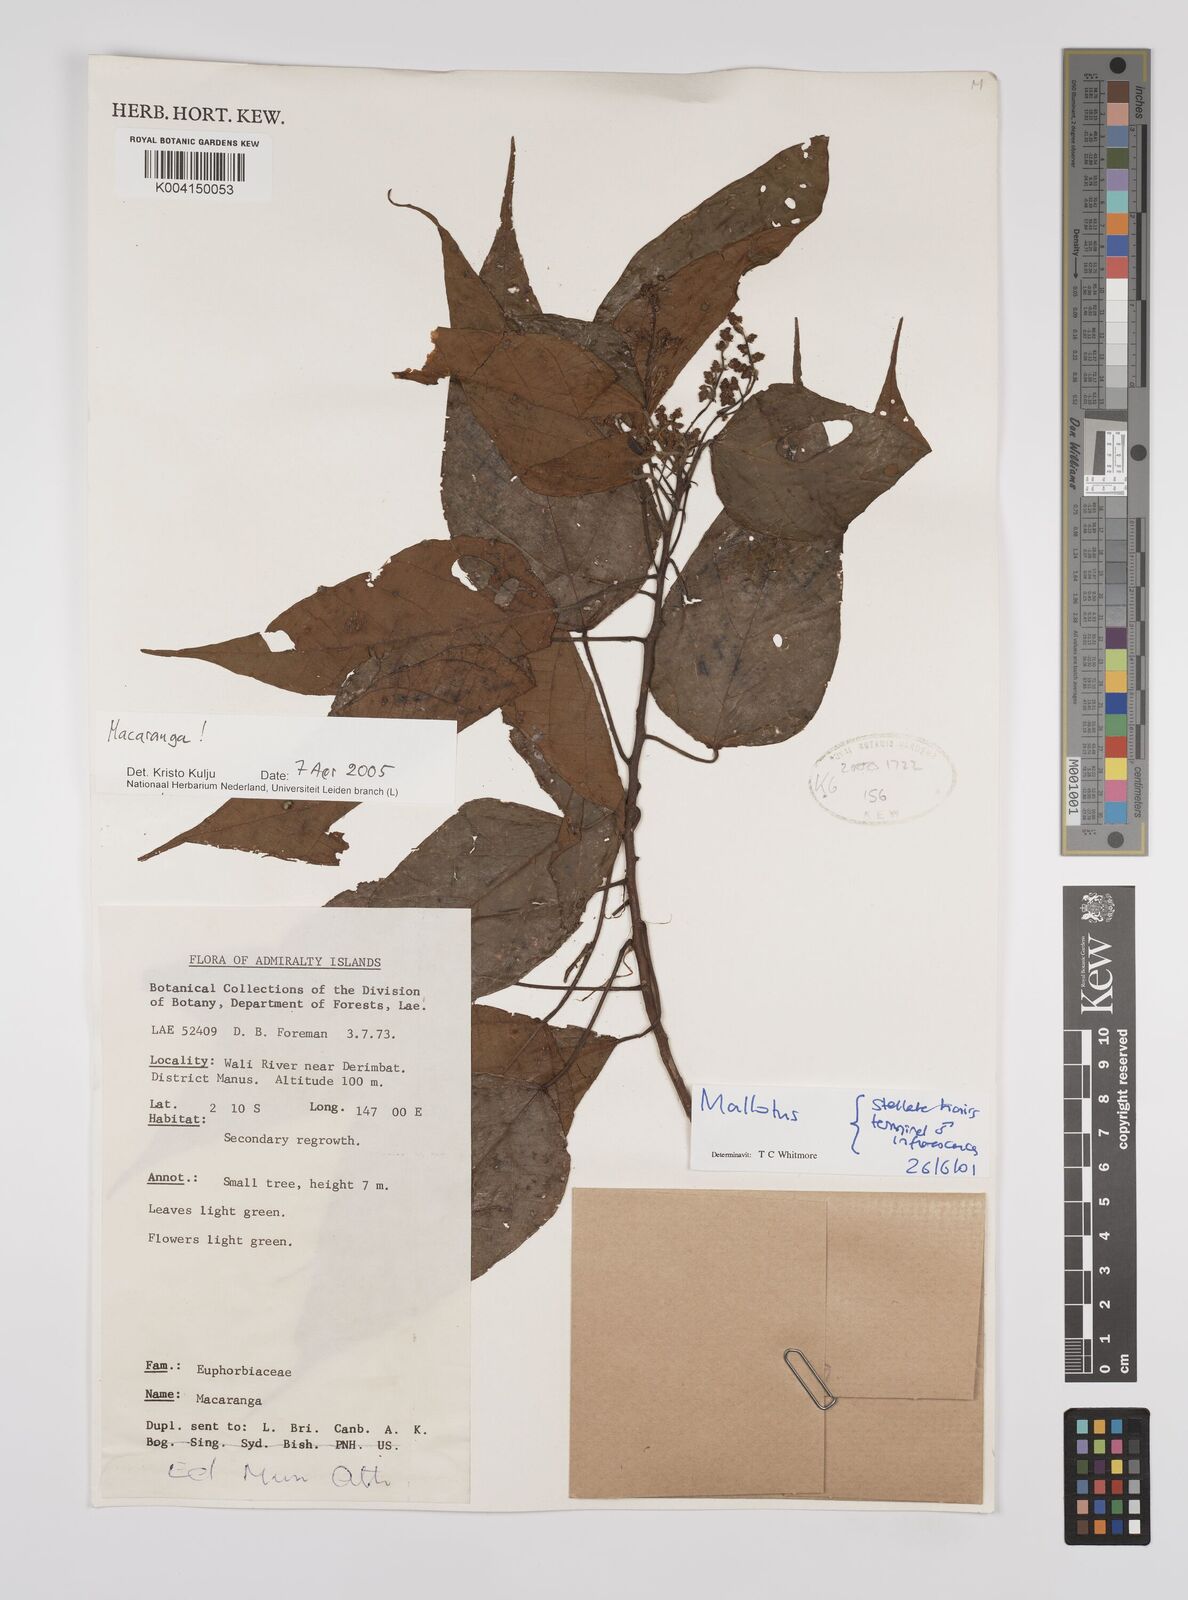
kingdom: Plantae
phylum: Tracheophyta
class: Magnoliopsida
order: Malpighiales
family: Euphorbiaceae
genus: Macaranga
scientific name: Macaranga
